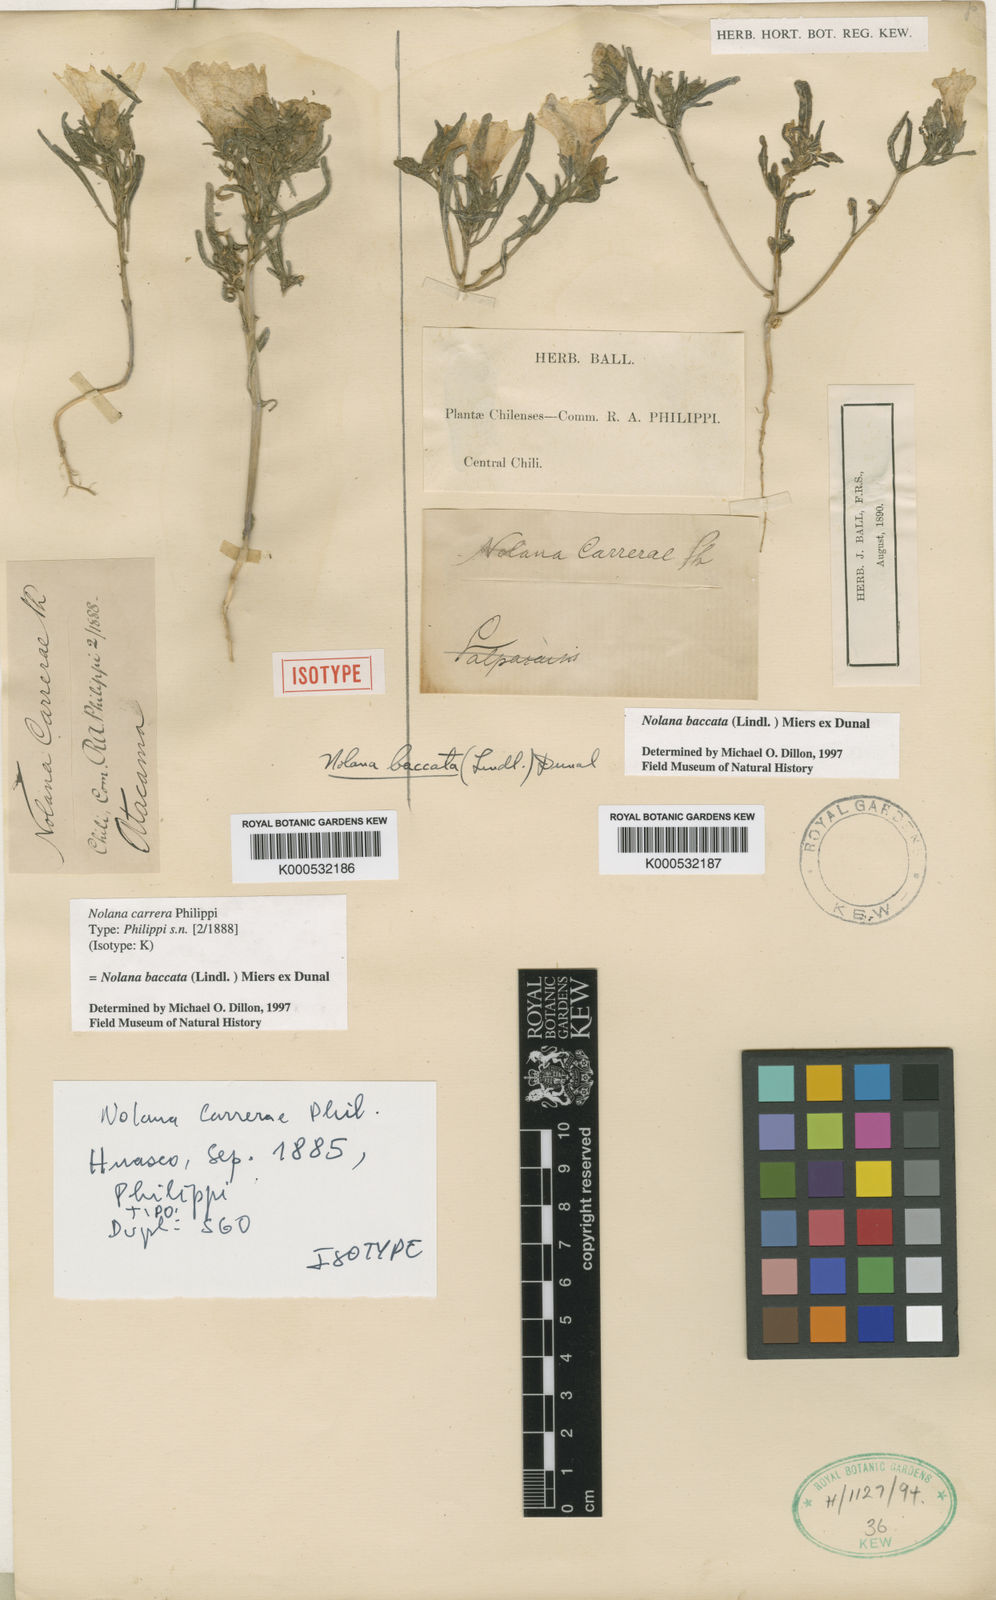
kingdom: Plantae
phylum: Tracheophyta
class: Magnoliopsida
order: Solanales
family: Solanaceae
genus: Nolana
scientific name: Nolana paradoxa
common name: Chilean-bellflower
